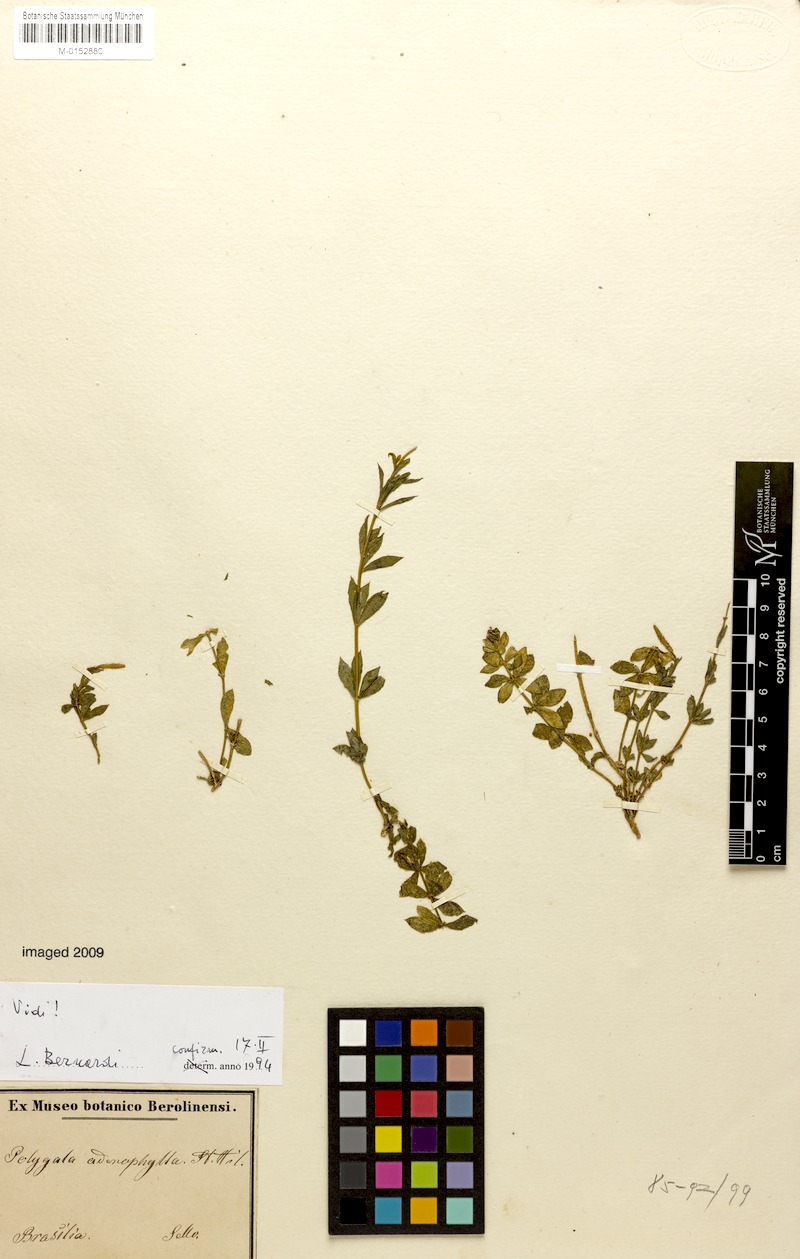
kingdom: Plantae
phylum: Tracheophyta
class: Magnoliopsida
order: Fabales
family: Polygalaceae
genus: Polygala
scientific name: Polygala adenophylla
